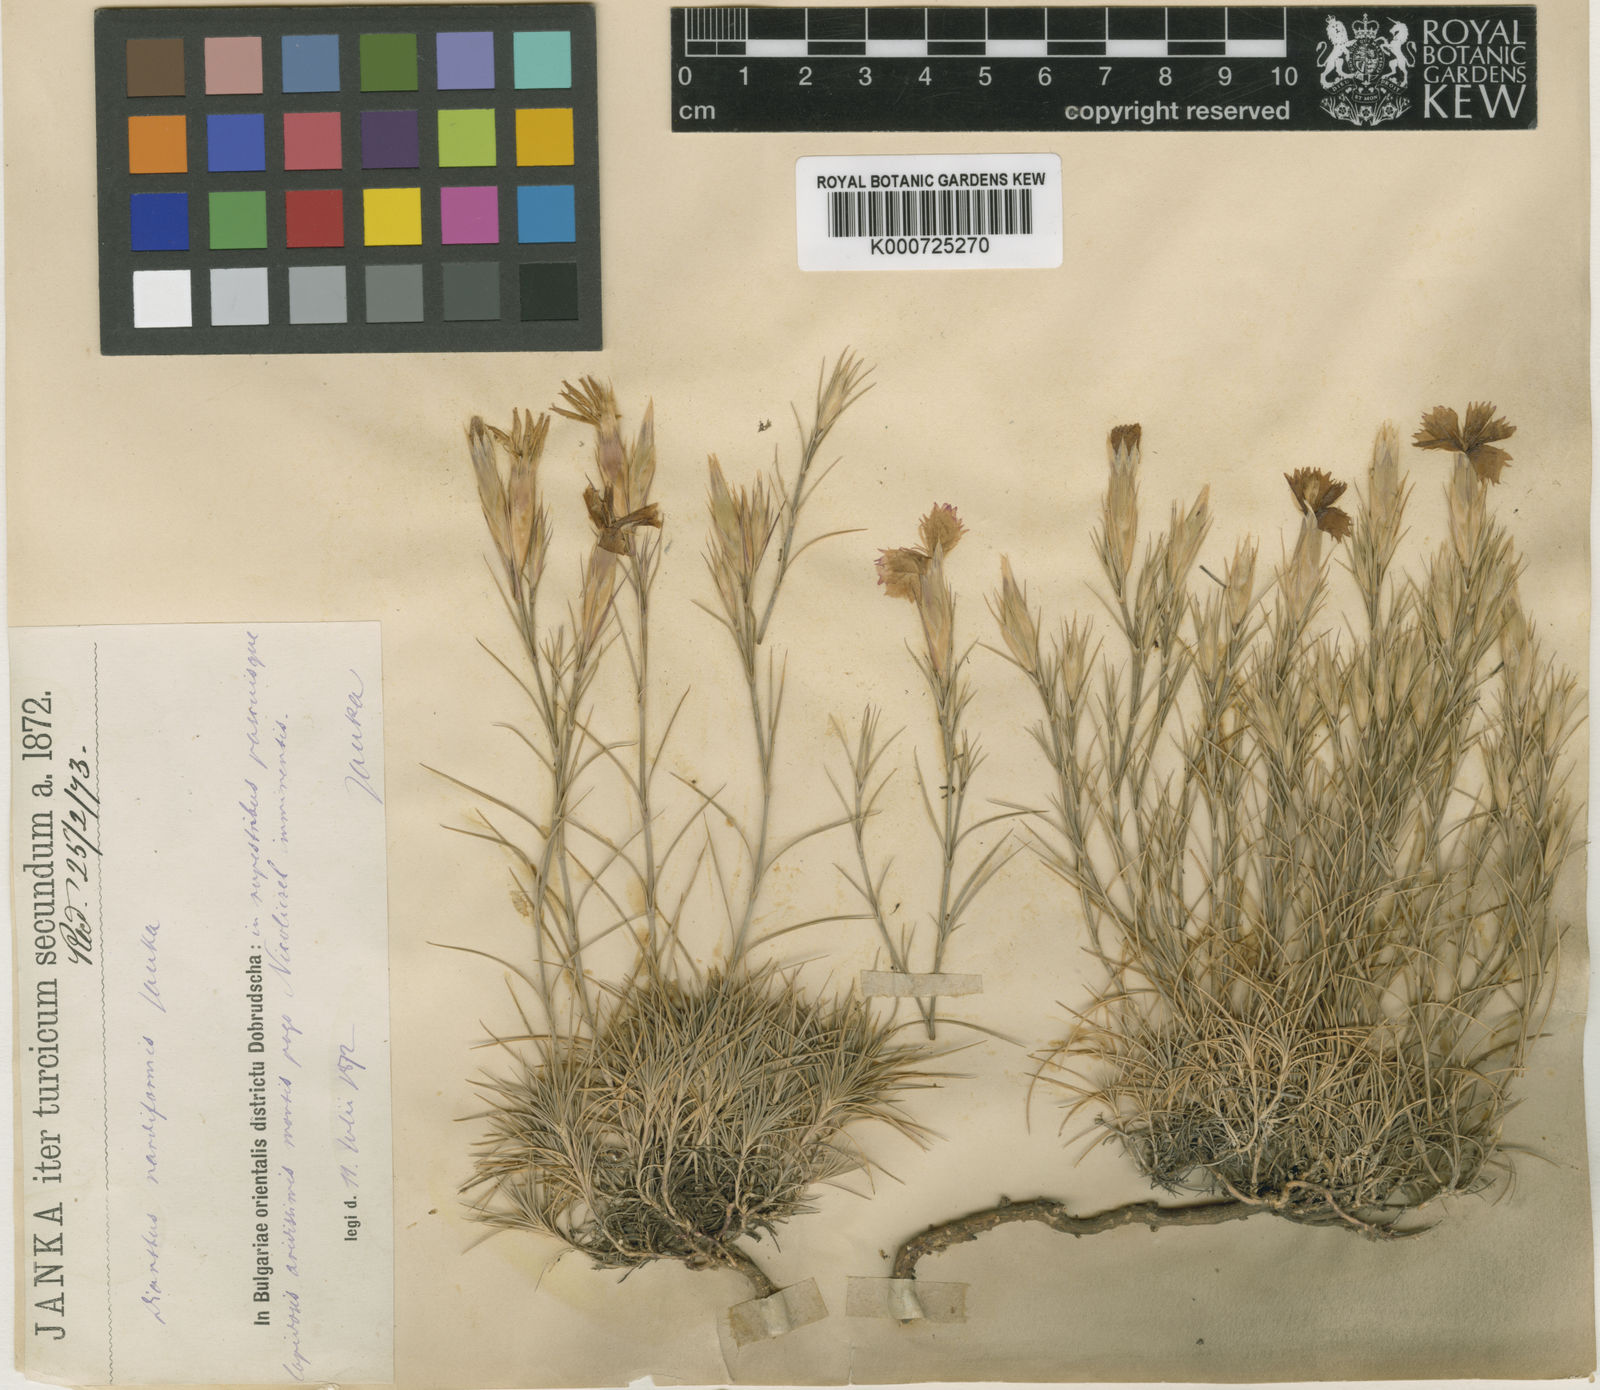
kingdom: Plantae
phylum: Tracheophyta
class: Magnoliopsida
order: Caryophyllales
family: Caryophyllaceae
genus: Dianthus
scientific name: Dianthus nardiformis
